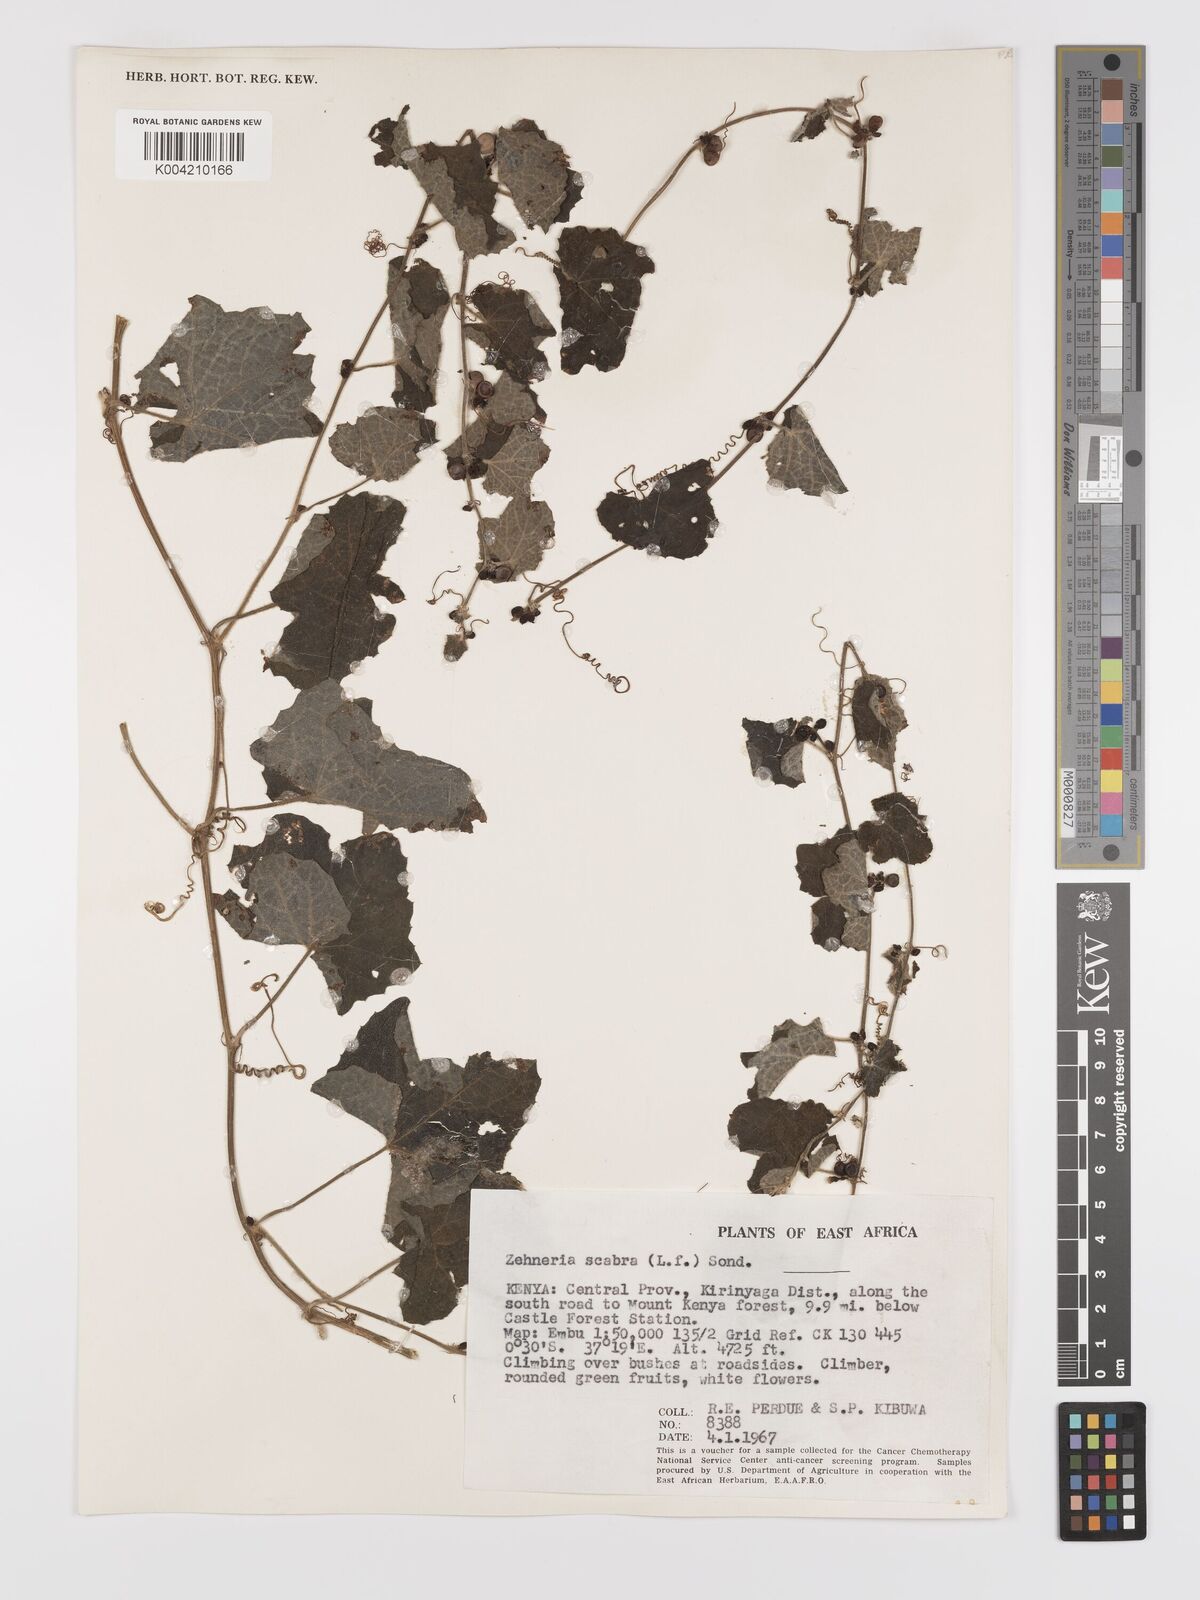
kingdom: Plantae
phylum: Tracheophyta
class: Magnoliopsida
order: Cucurbitales
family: Cucurbitaceae
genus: Zehneria
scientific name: Zehneria scabra
